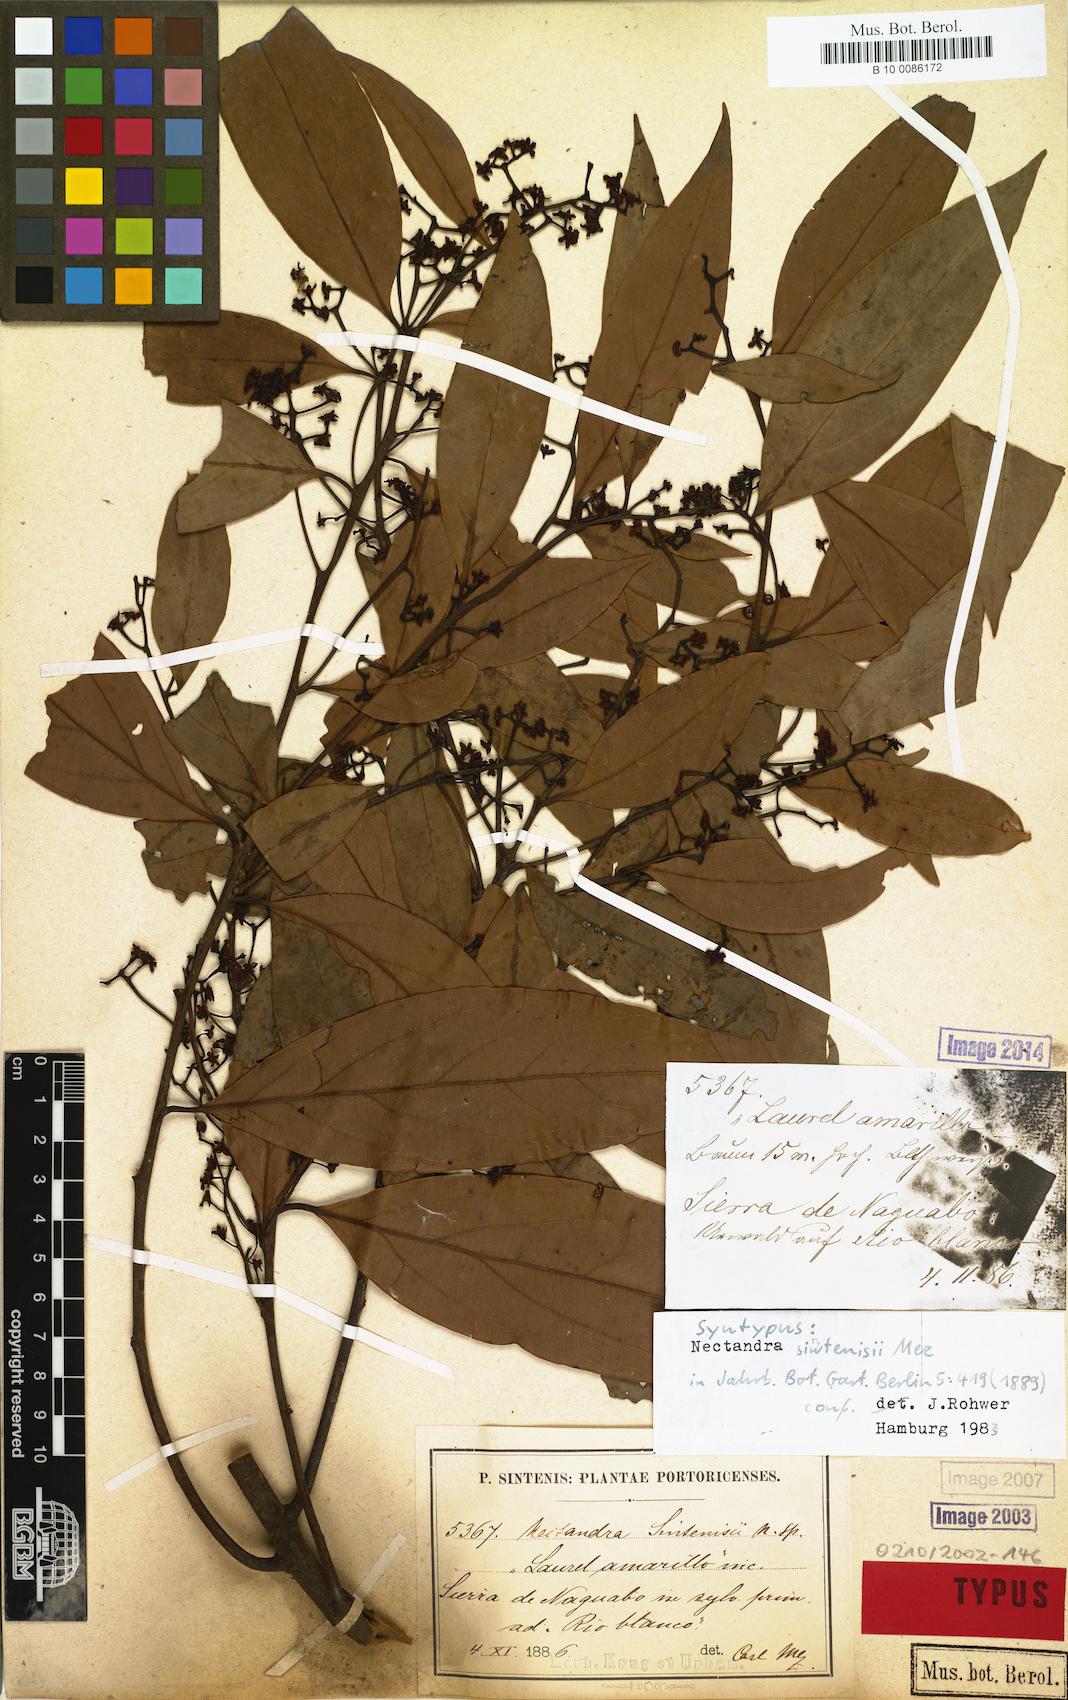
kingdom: Plantae
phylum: Tracheophyta
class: Magnoliopsida
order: Laurales
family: Lauraceae
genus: Nectandra
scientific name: Nectandra turbacensis
